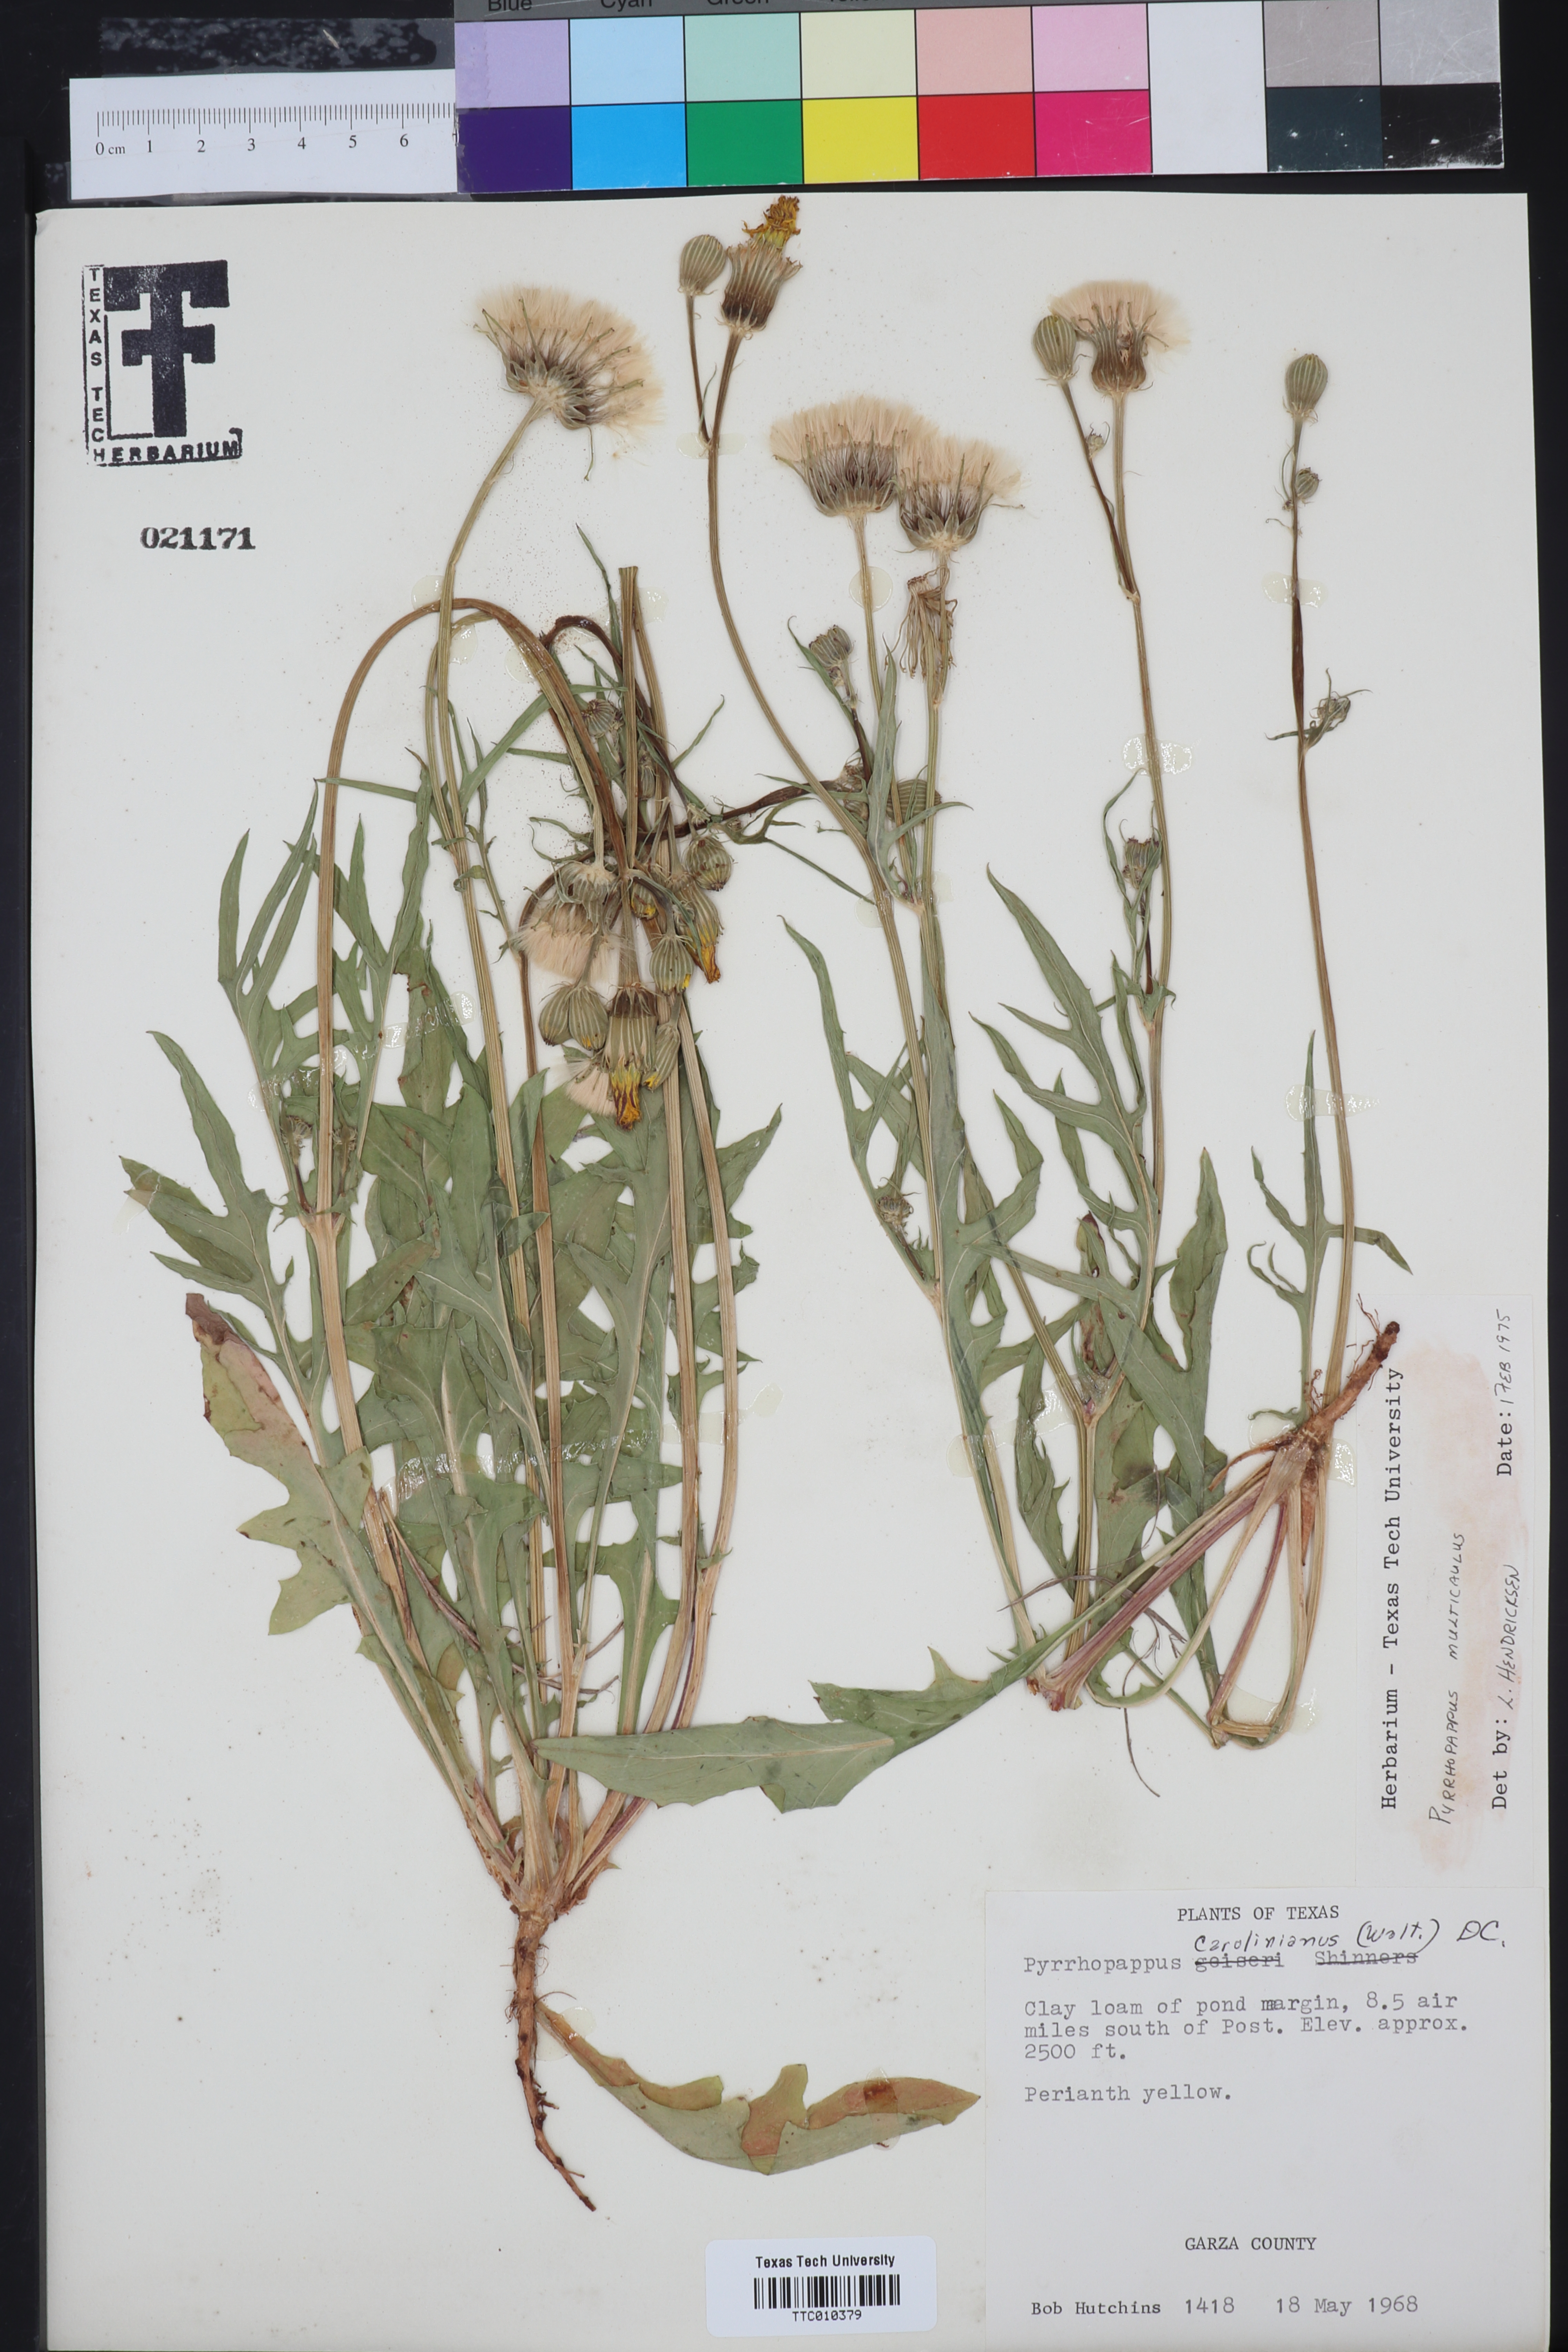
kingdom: Plantae
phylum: Tracheophyta
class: Magnoliopsida
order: Asterales
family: Asteraceae
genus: Pyrrhopappus
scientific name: Pyrrhopappus pauciflorus
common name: Texas false dandelion
